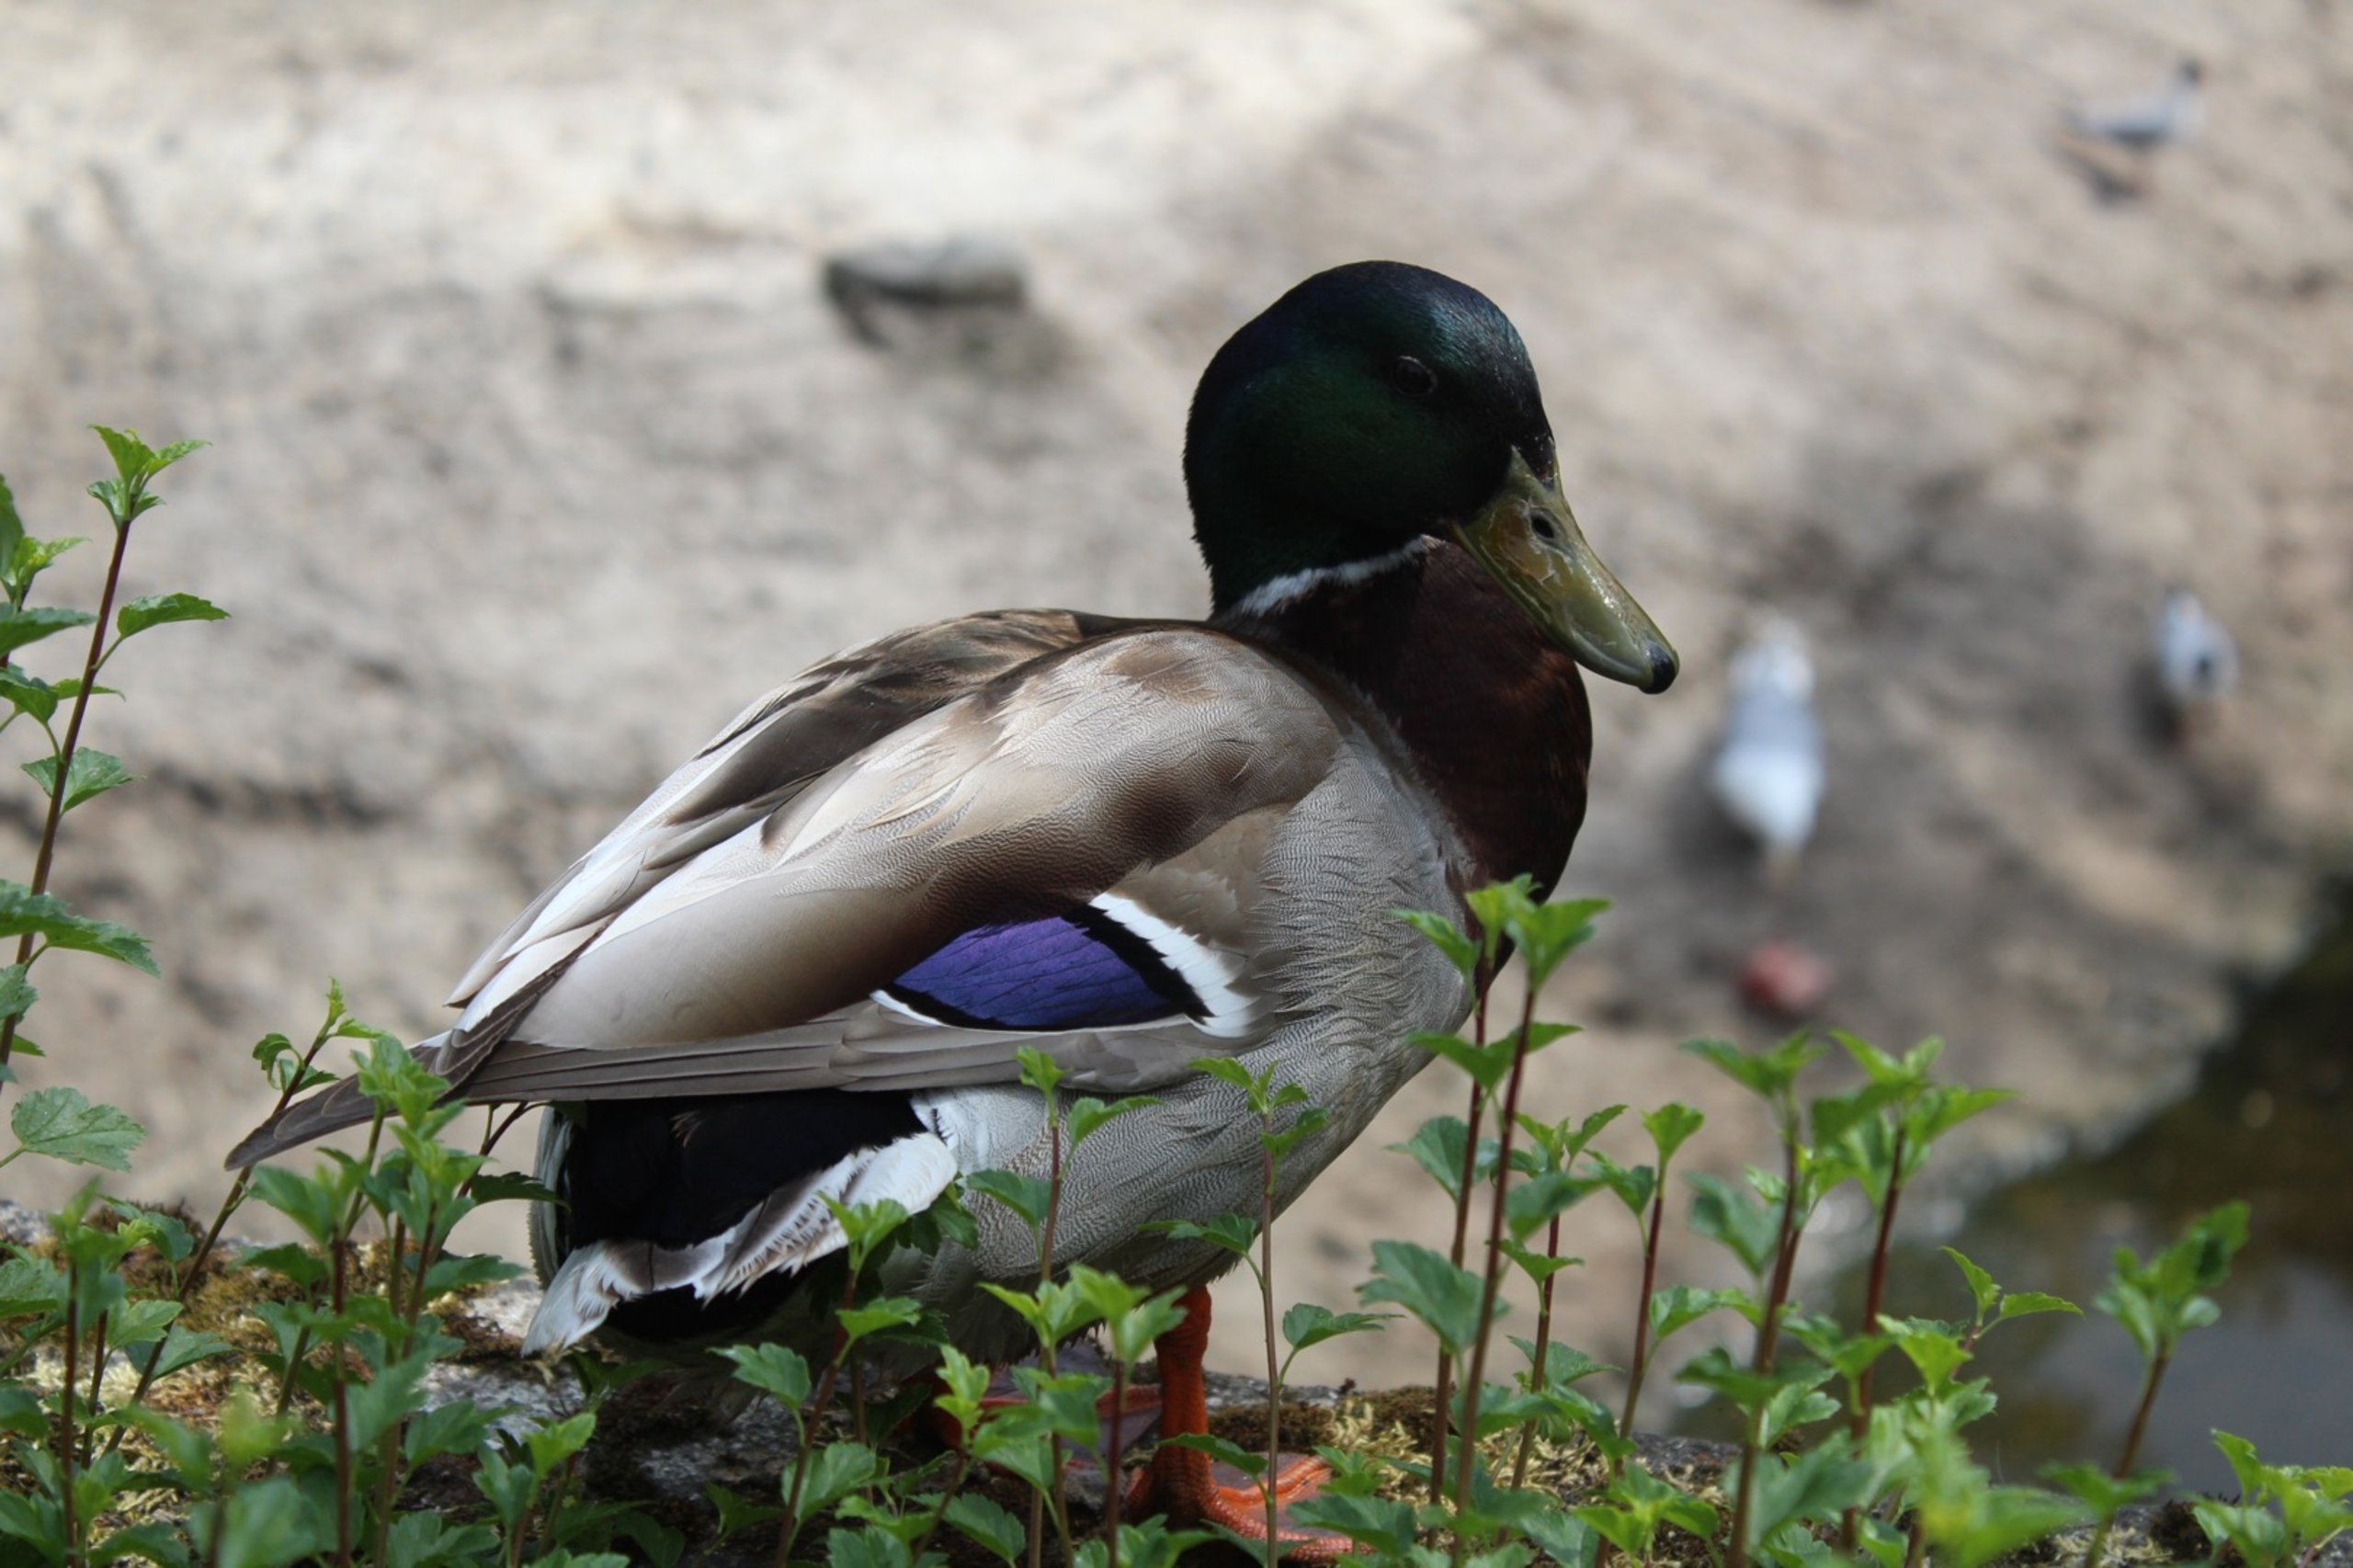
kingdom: Animalia
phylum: Chordata
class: Aves
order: Anseriformes
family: Anatidae
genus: Anas
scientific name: Anas platyrhynchos
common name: Gråand
